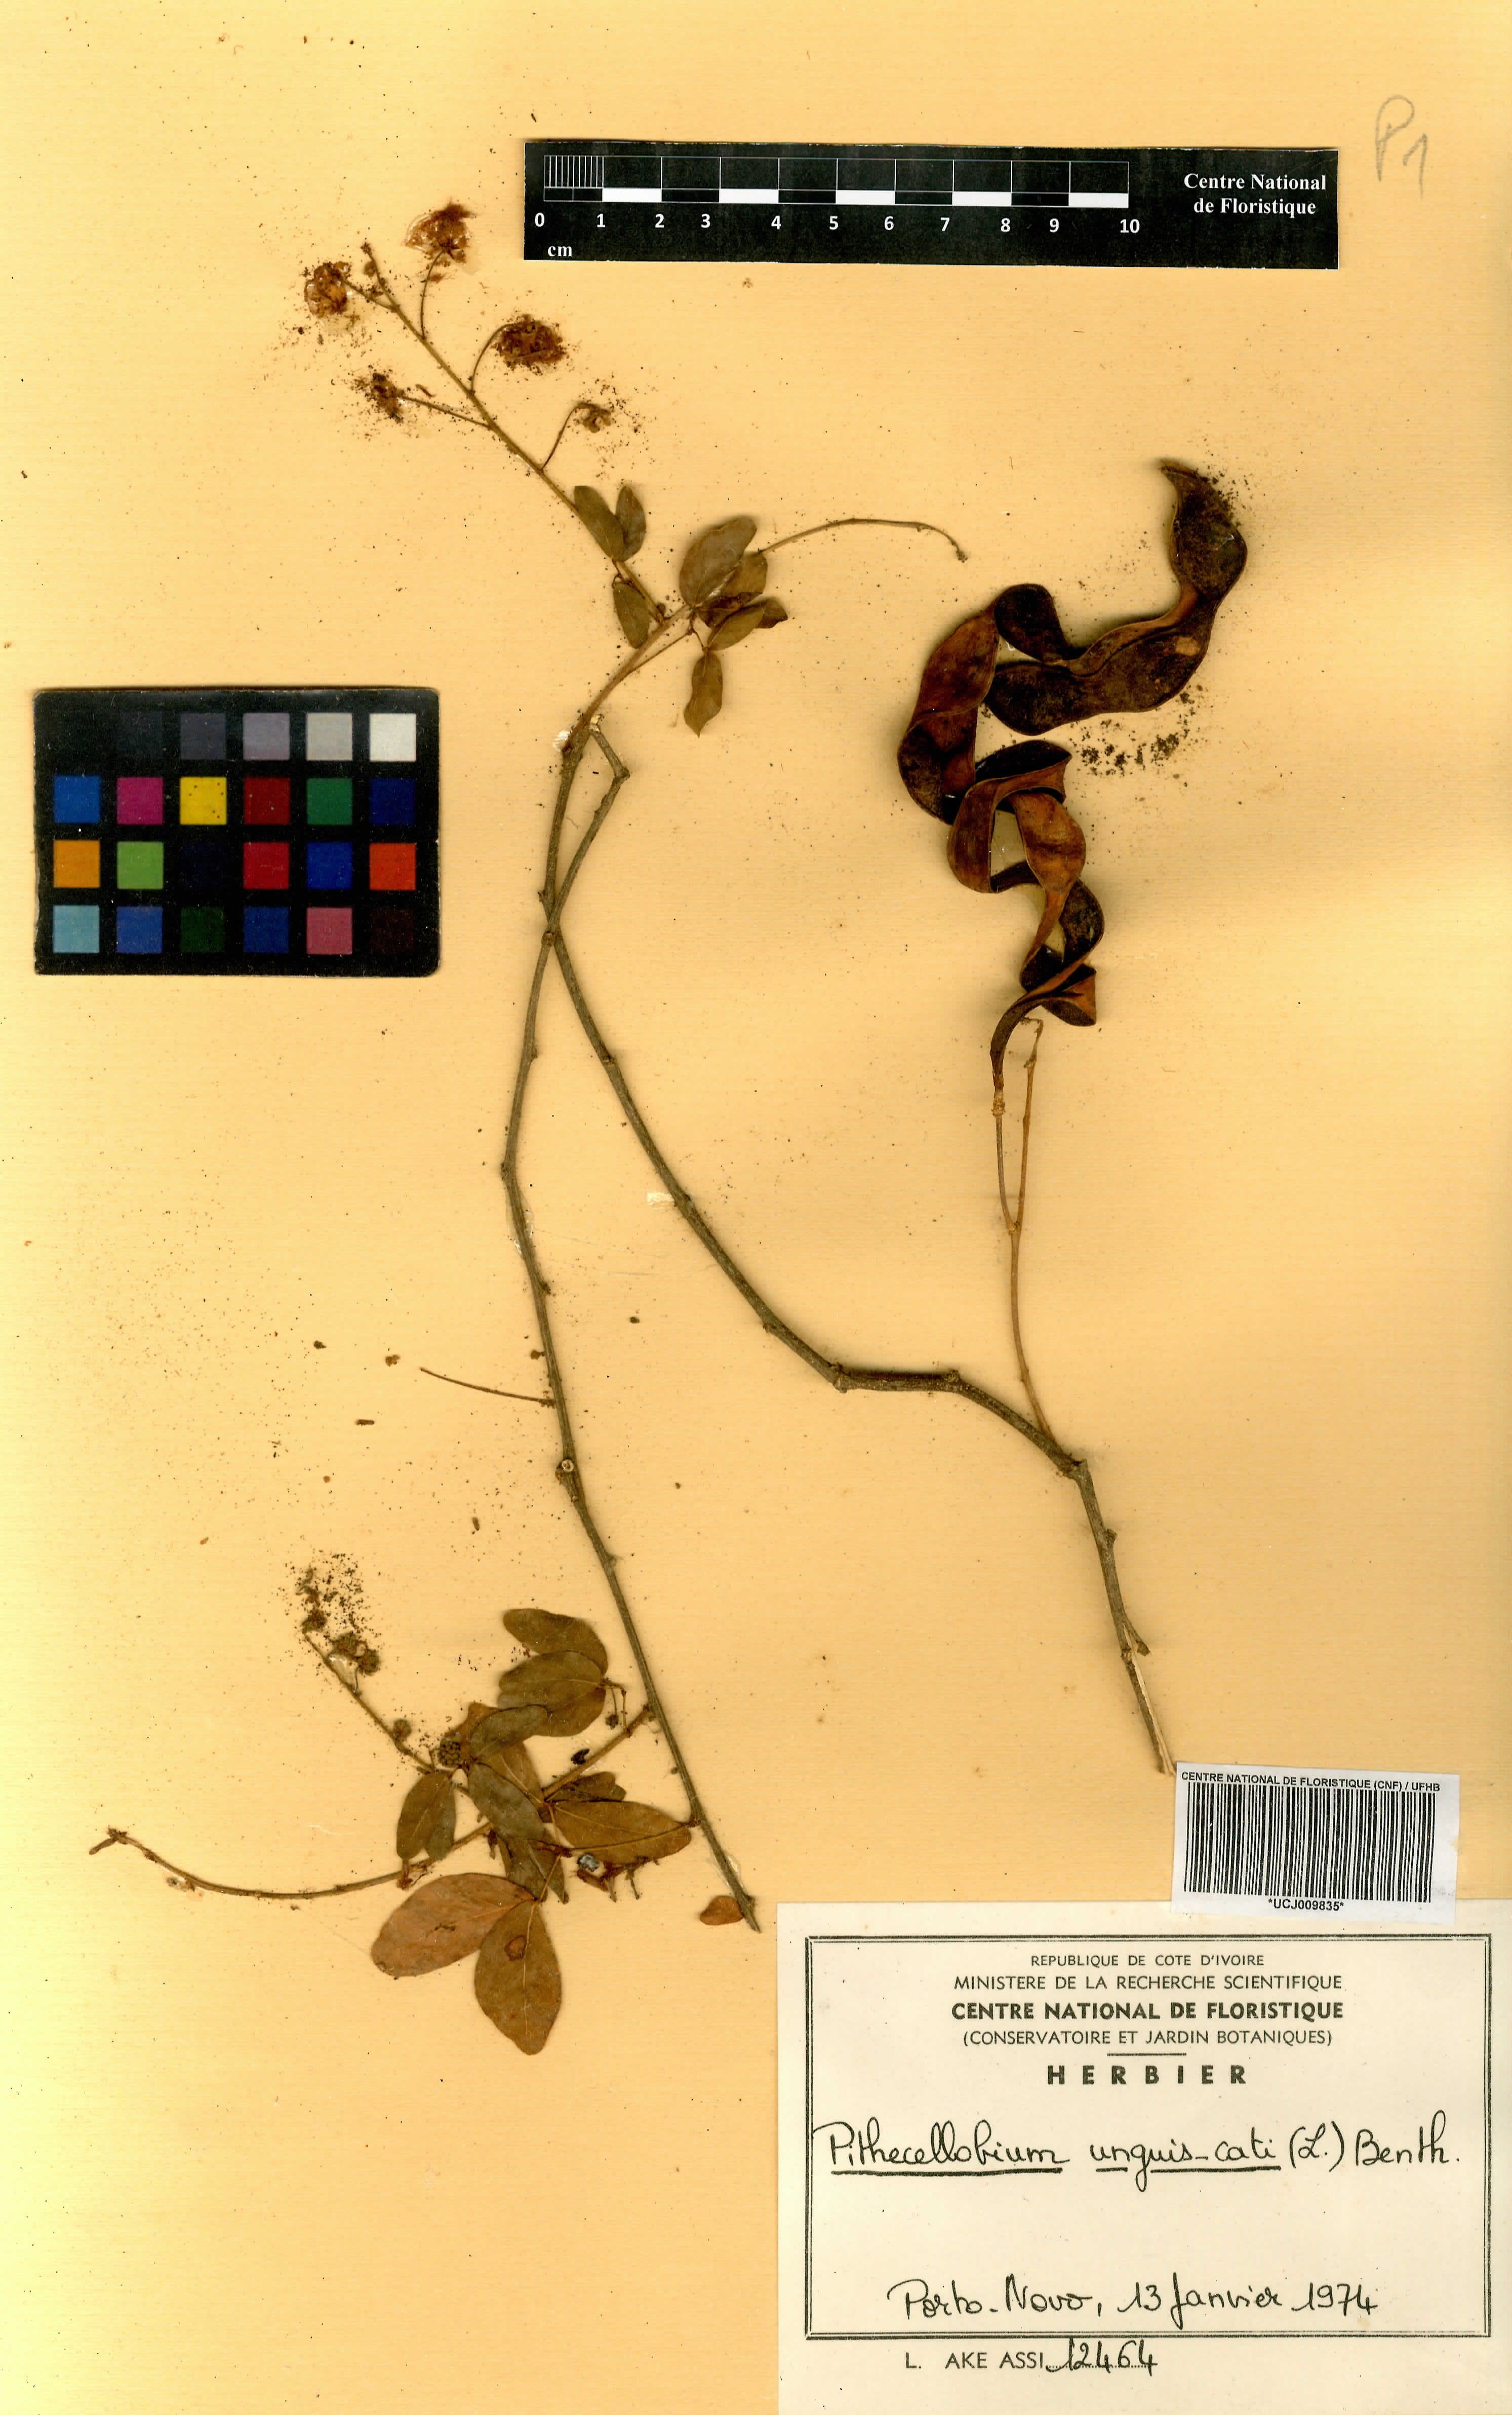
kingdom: Plantae
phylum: Tracheophyta
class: Magnoliopsida
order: Fabales
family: Fabaceae
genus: Pithecellobium
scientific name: Pithecellobium unguis-cati
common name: Cat's-claw
